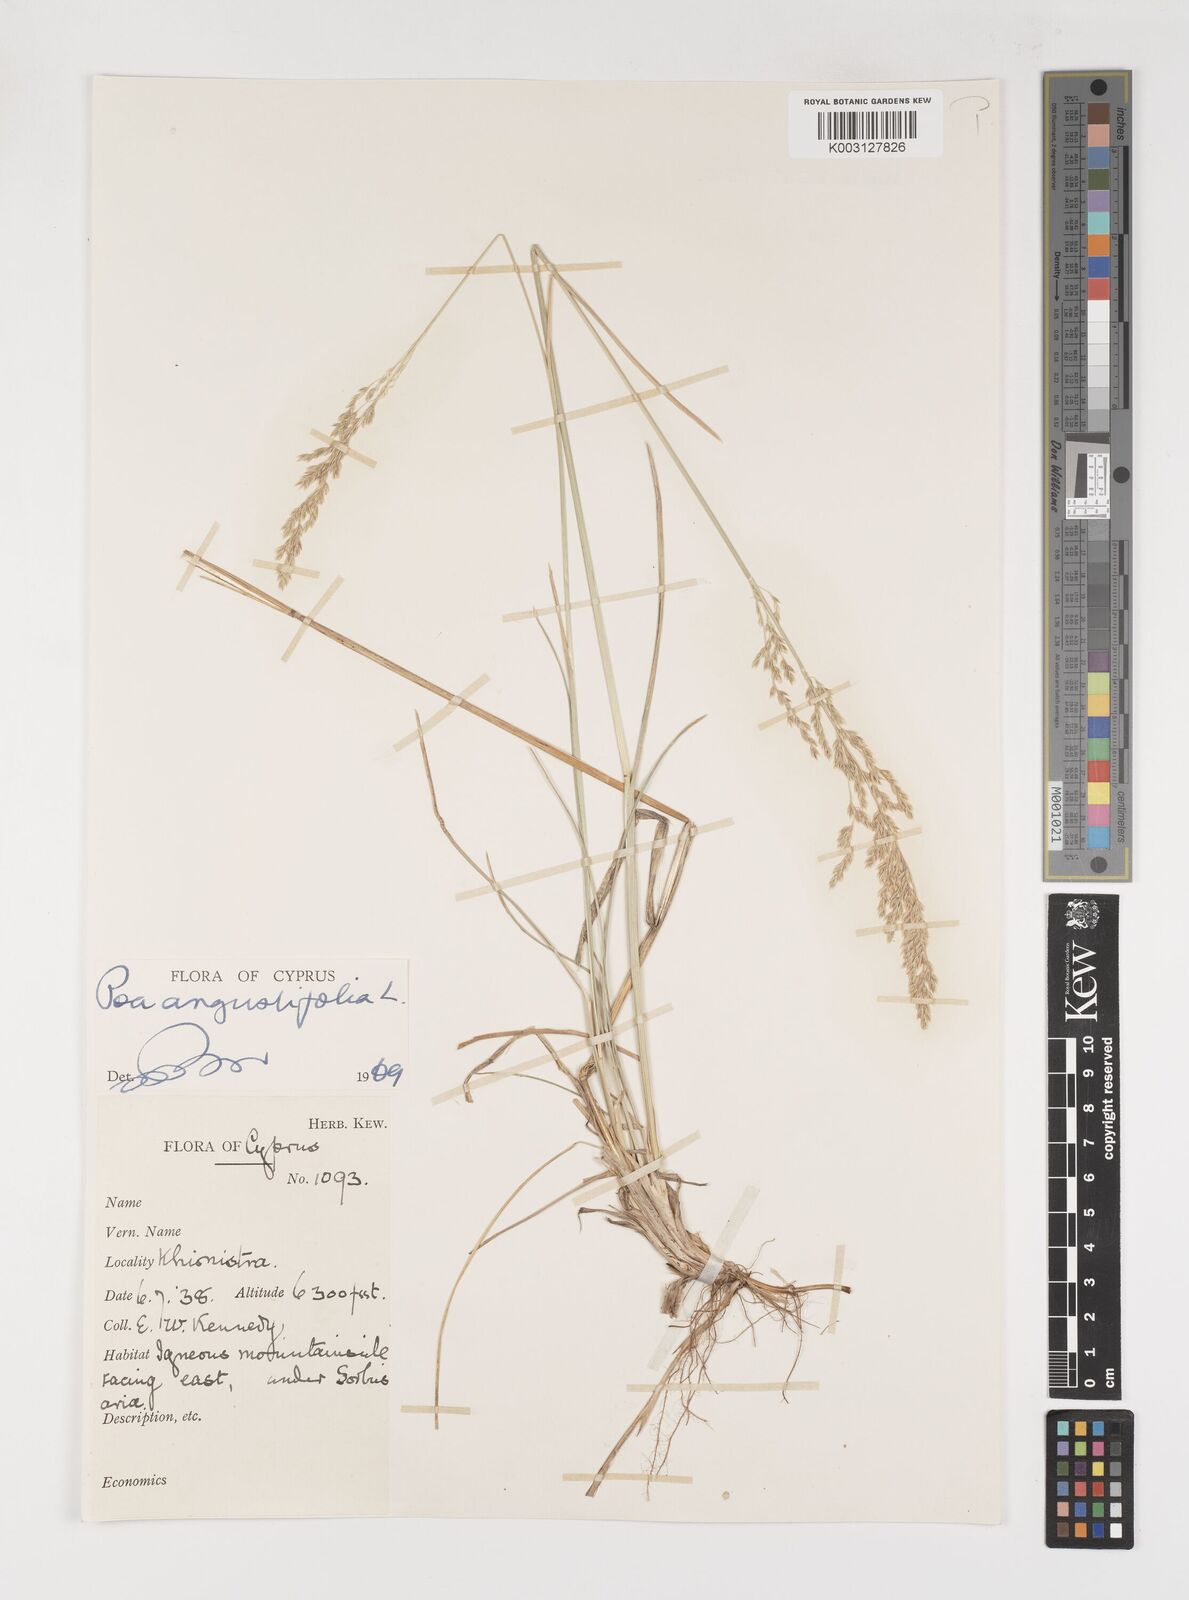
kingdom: Plantae
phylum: Tracheophyta
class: Liliopsida
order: Poales
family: Poaceae
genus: Poa
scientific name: Poa angustifolia
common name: Narrow-leaved meadow-grass
